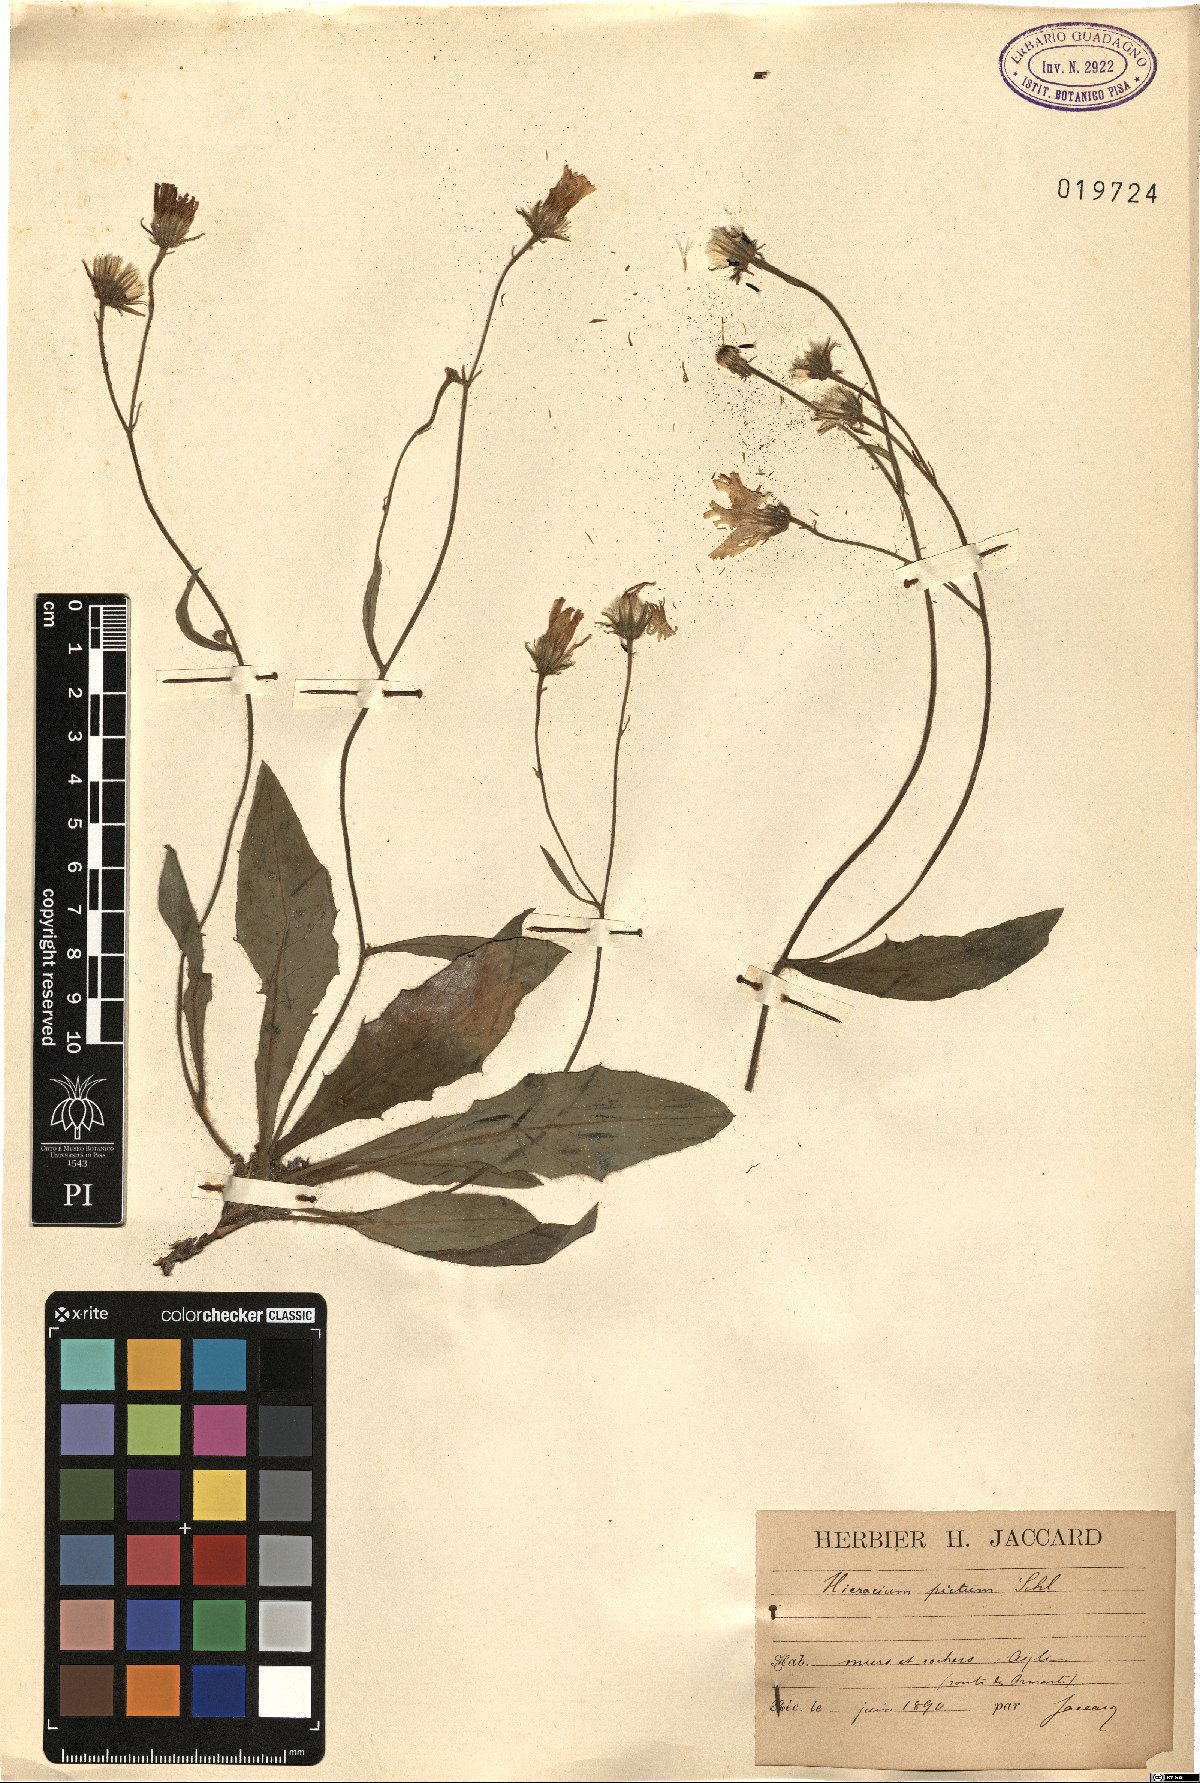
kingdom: Plantae
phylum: Tracheophyta
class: Magnoliopsida
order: Asterales
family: Asteraceae
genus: Hieracium
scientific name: Hieracium pictum
